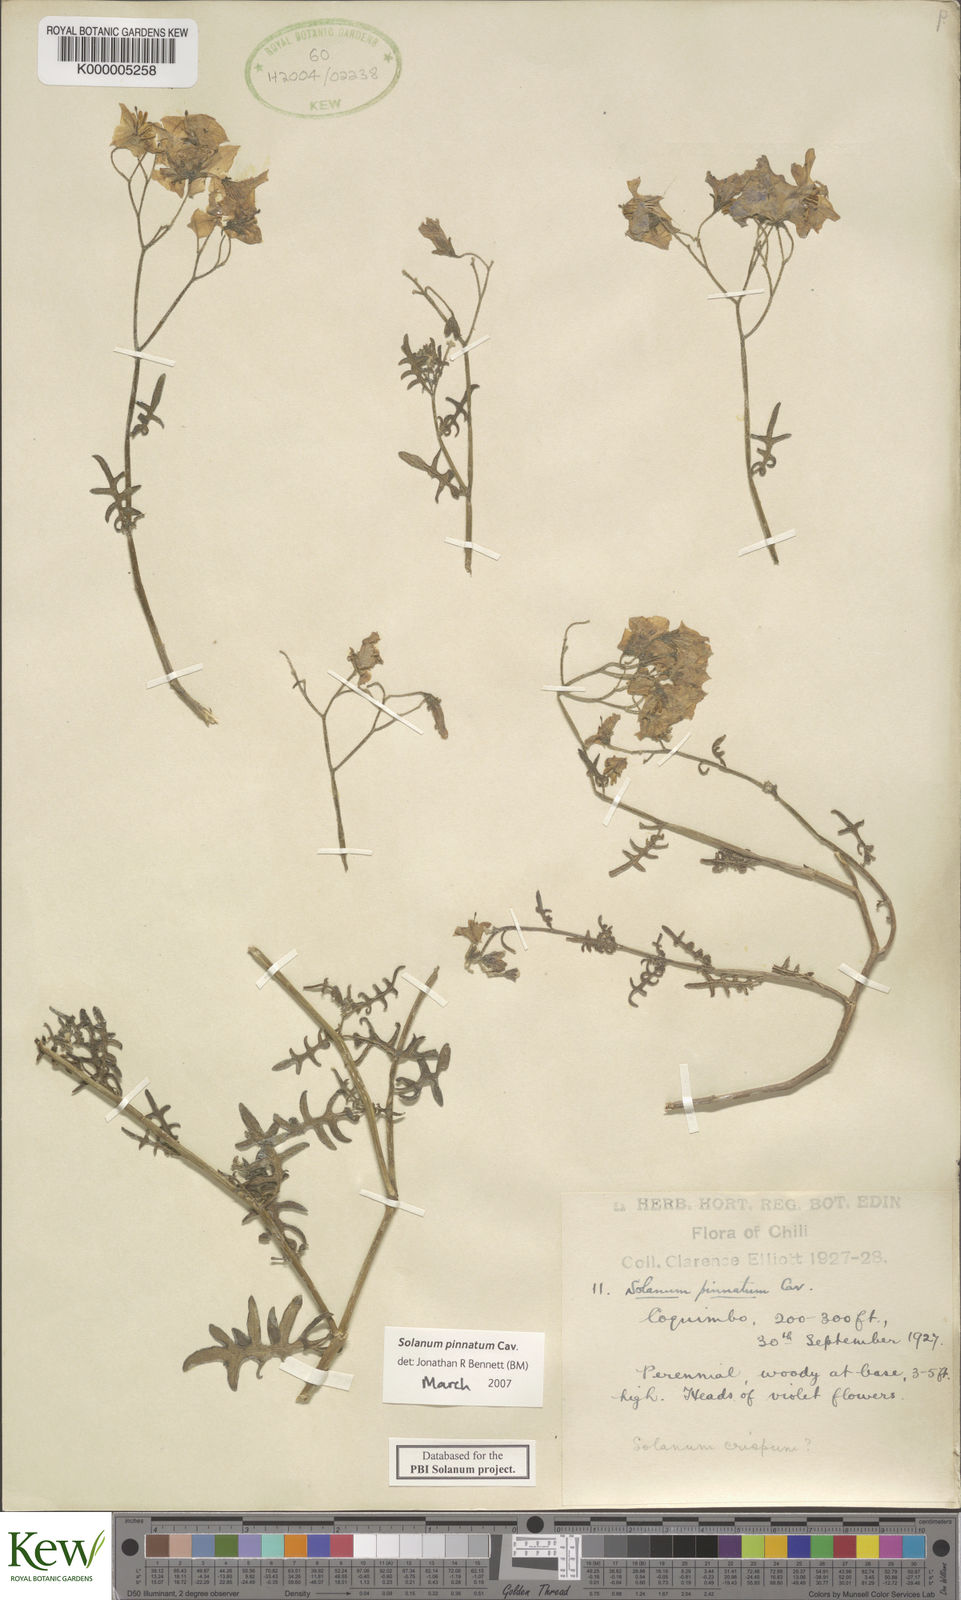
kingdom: Plantae
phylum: Tracheophyta
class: Magnoliopsida
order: Solanales
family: Solanaceae
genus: Solanum
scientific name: Solanum pinnatum
